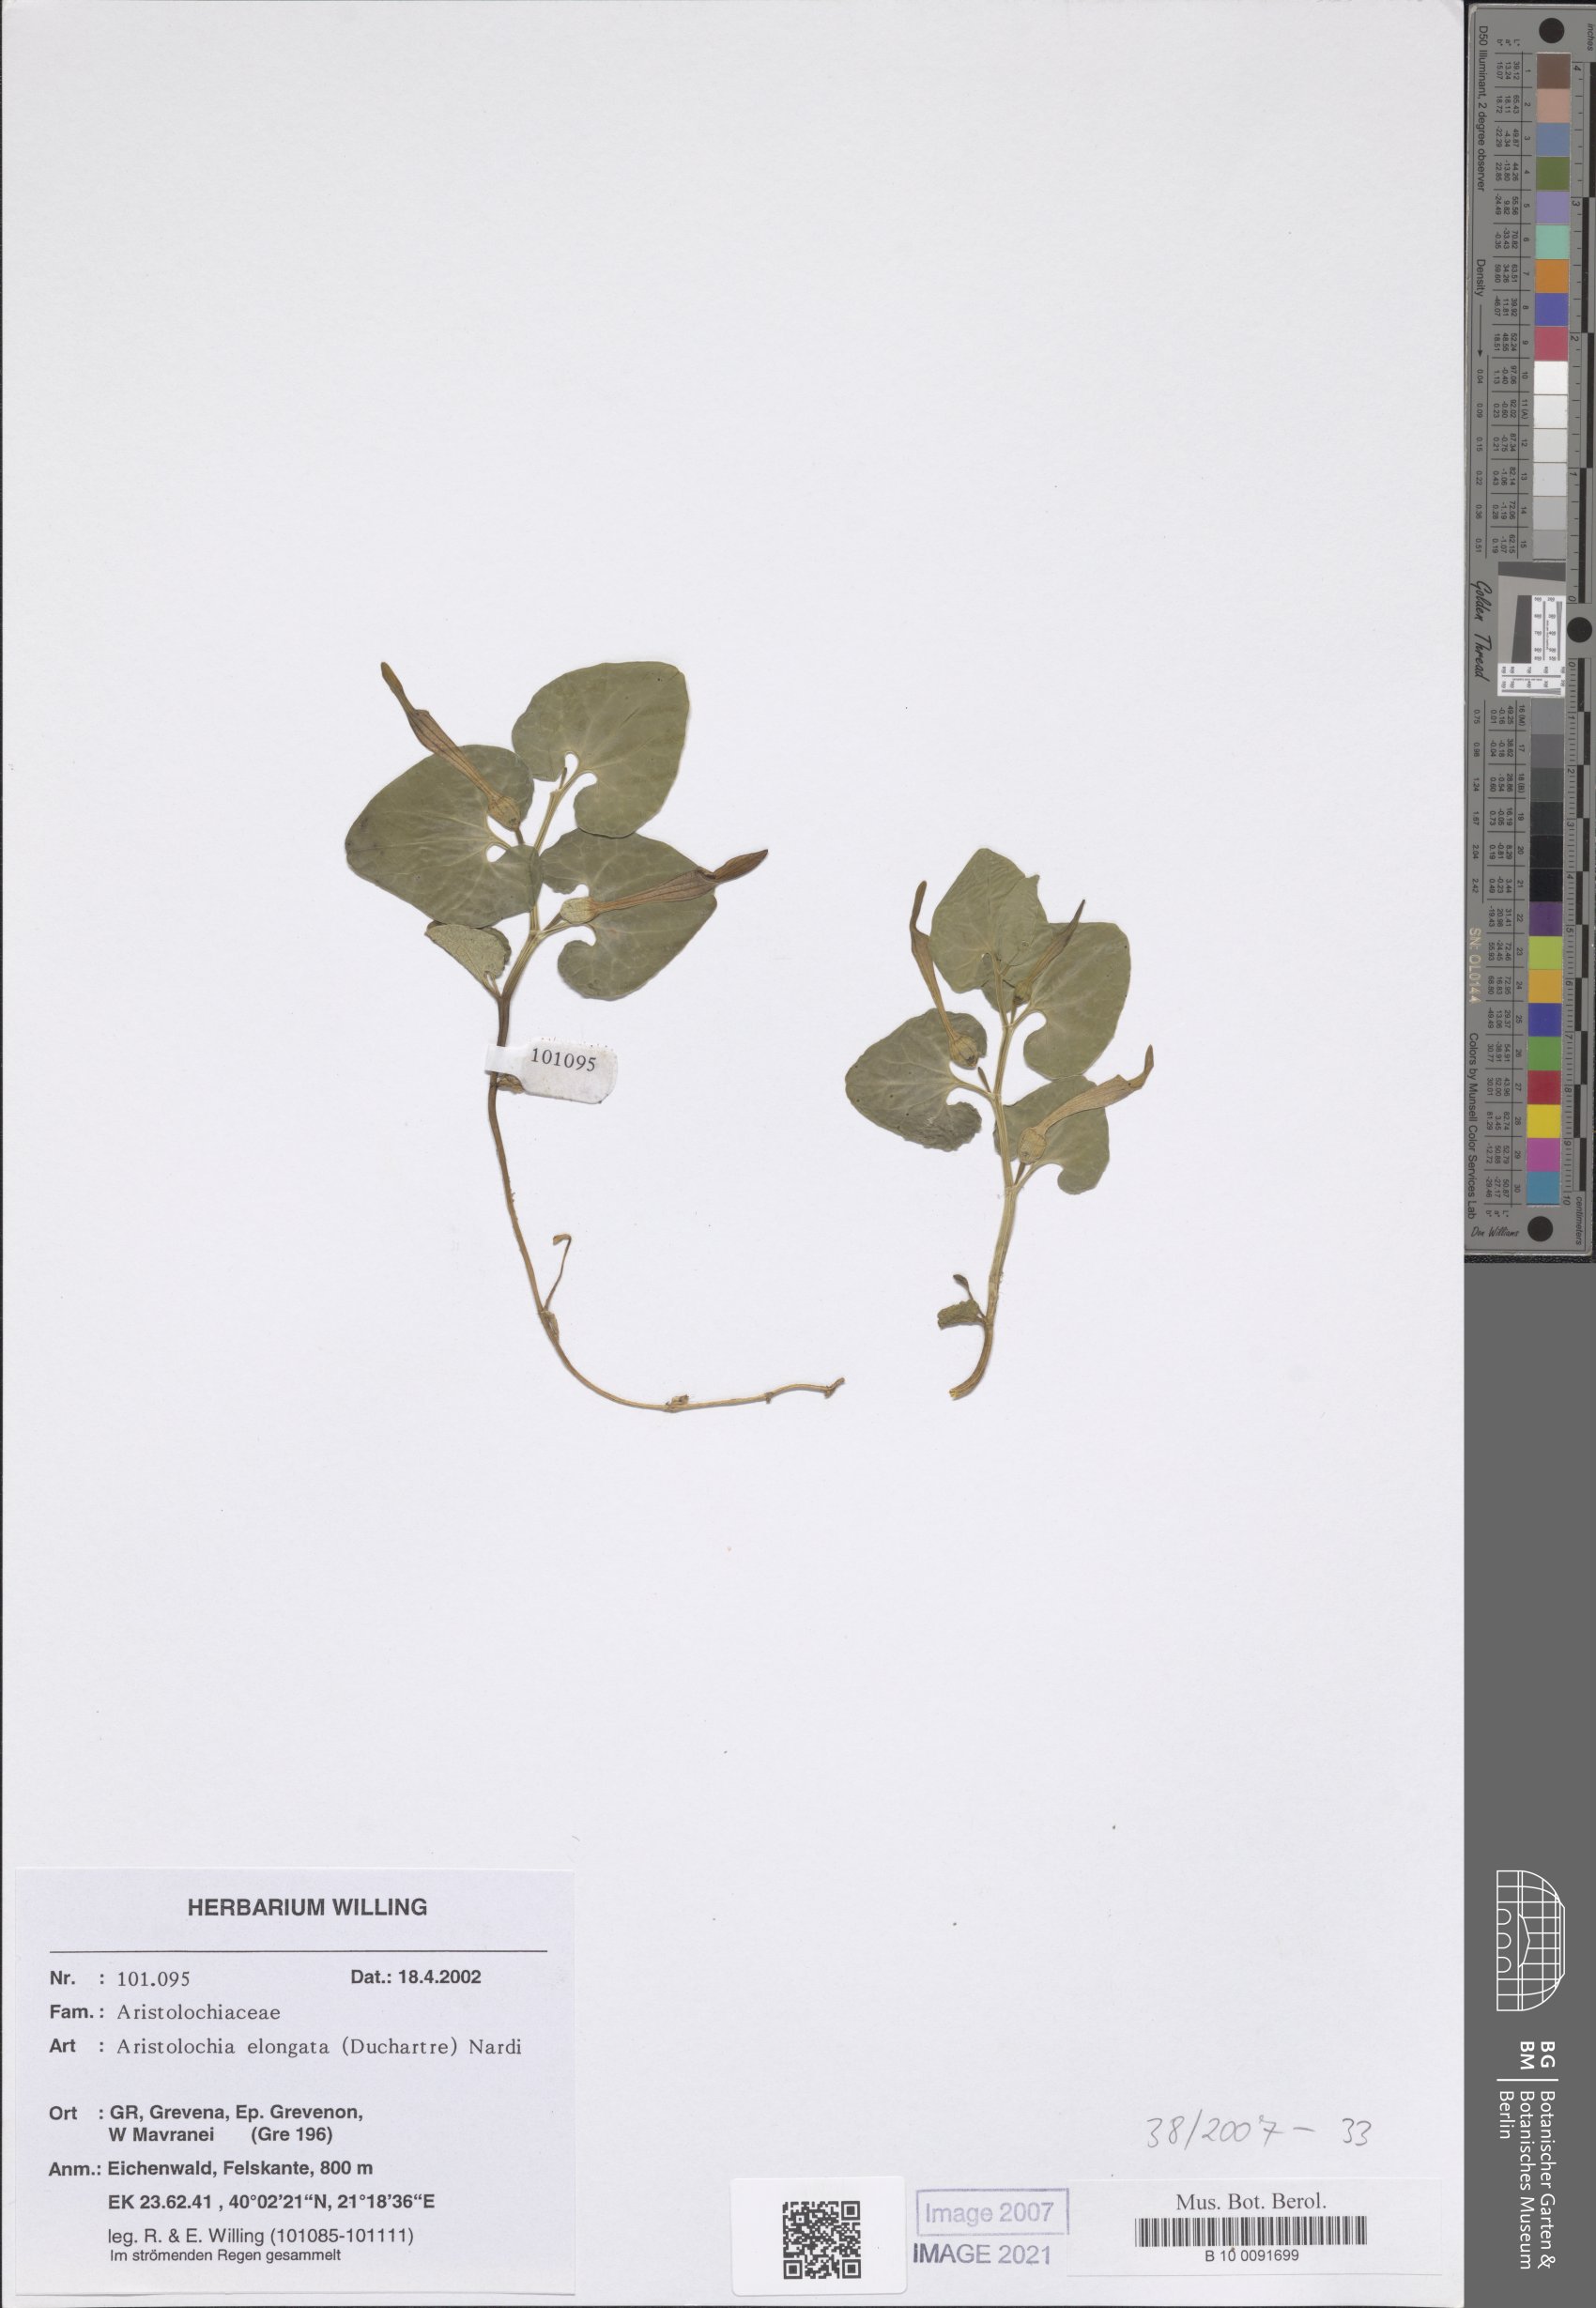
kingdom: Plantae
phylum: Tracheophyta
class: Magnoliopsida
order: Piperales
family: Aristolochiaceae
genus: Aristolochia
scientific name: Aristolochia nardiana
